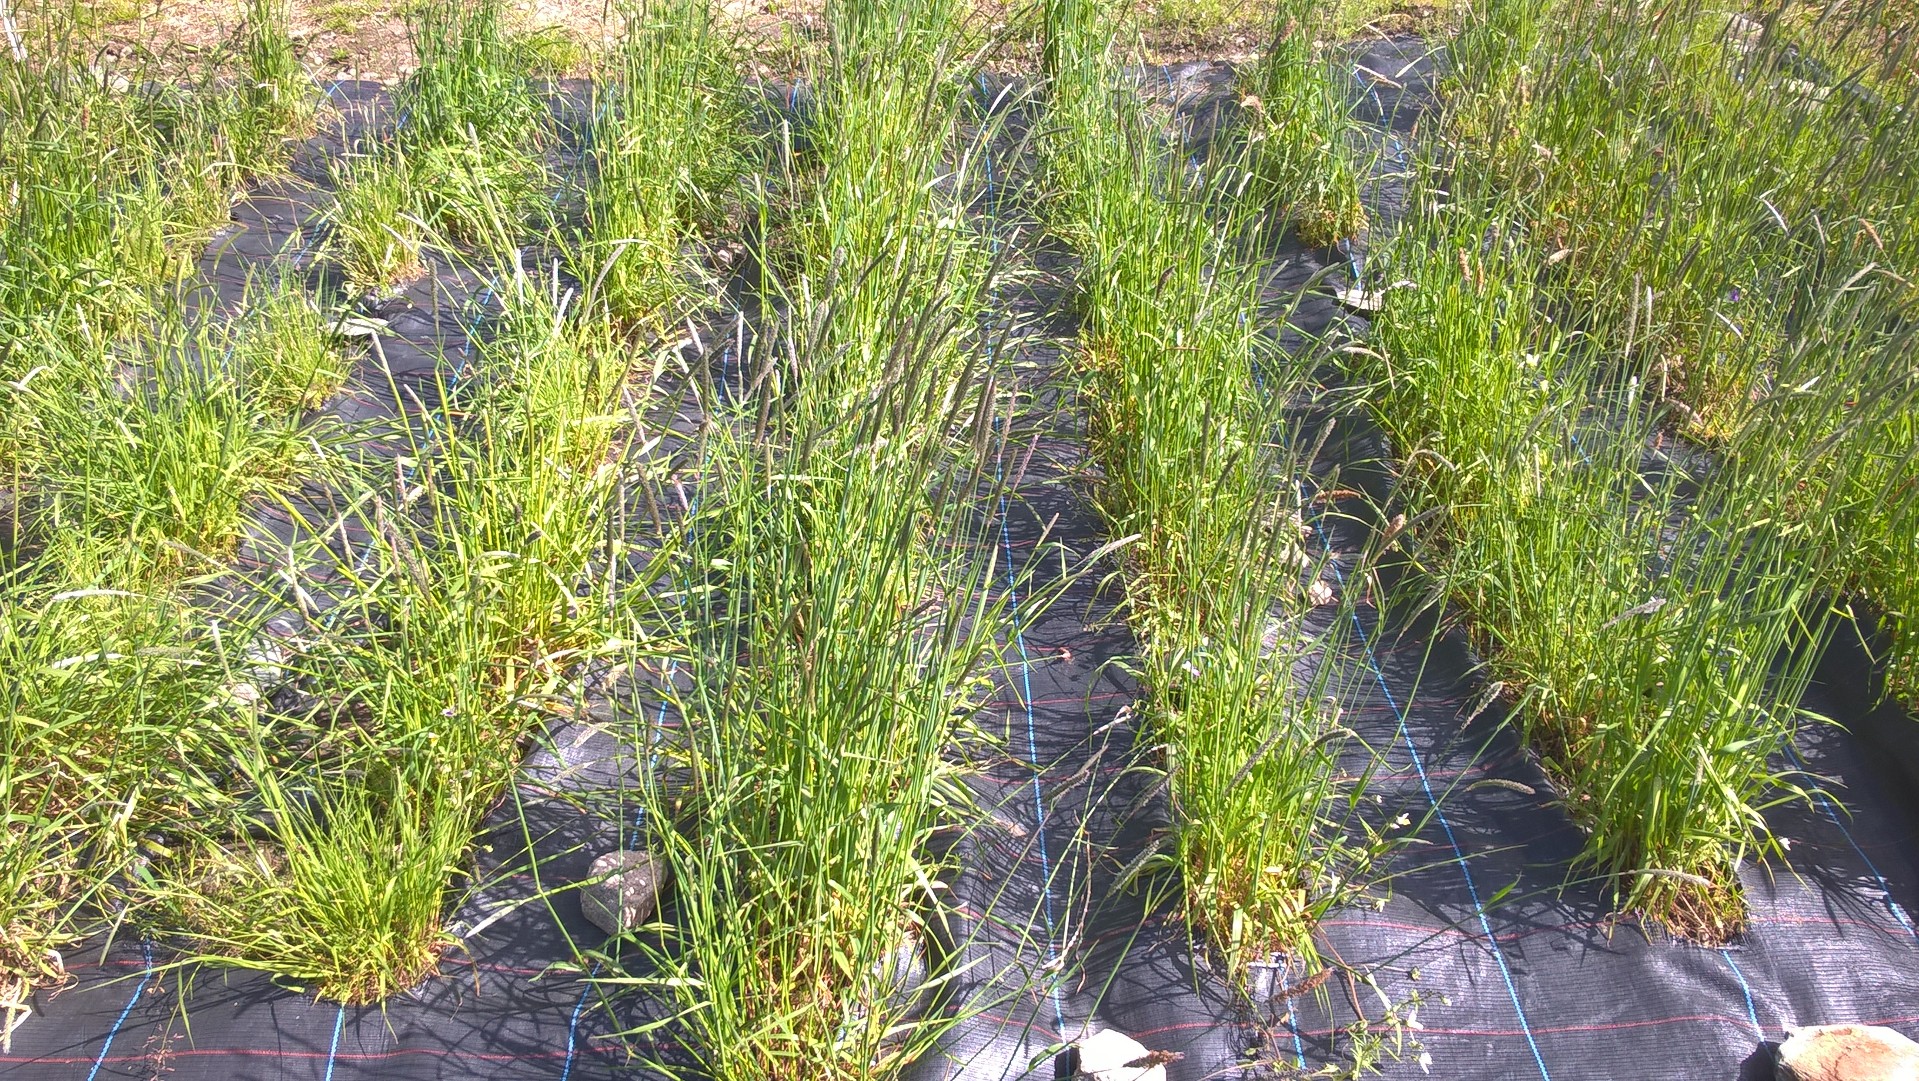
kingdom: Plantae
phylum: Tracheophyta
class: Liliopsida
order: Poales
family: Poaceae
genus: Alopecurus
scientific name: Alopecurus pratensis
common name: Meadow foxtail
